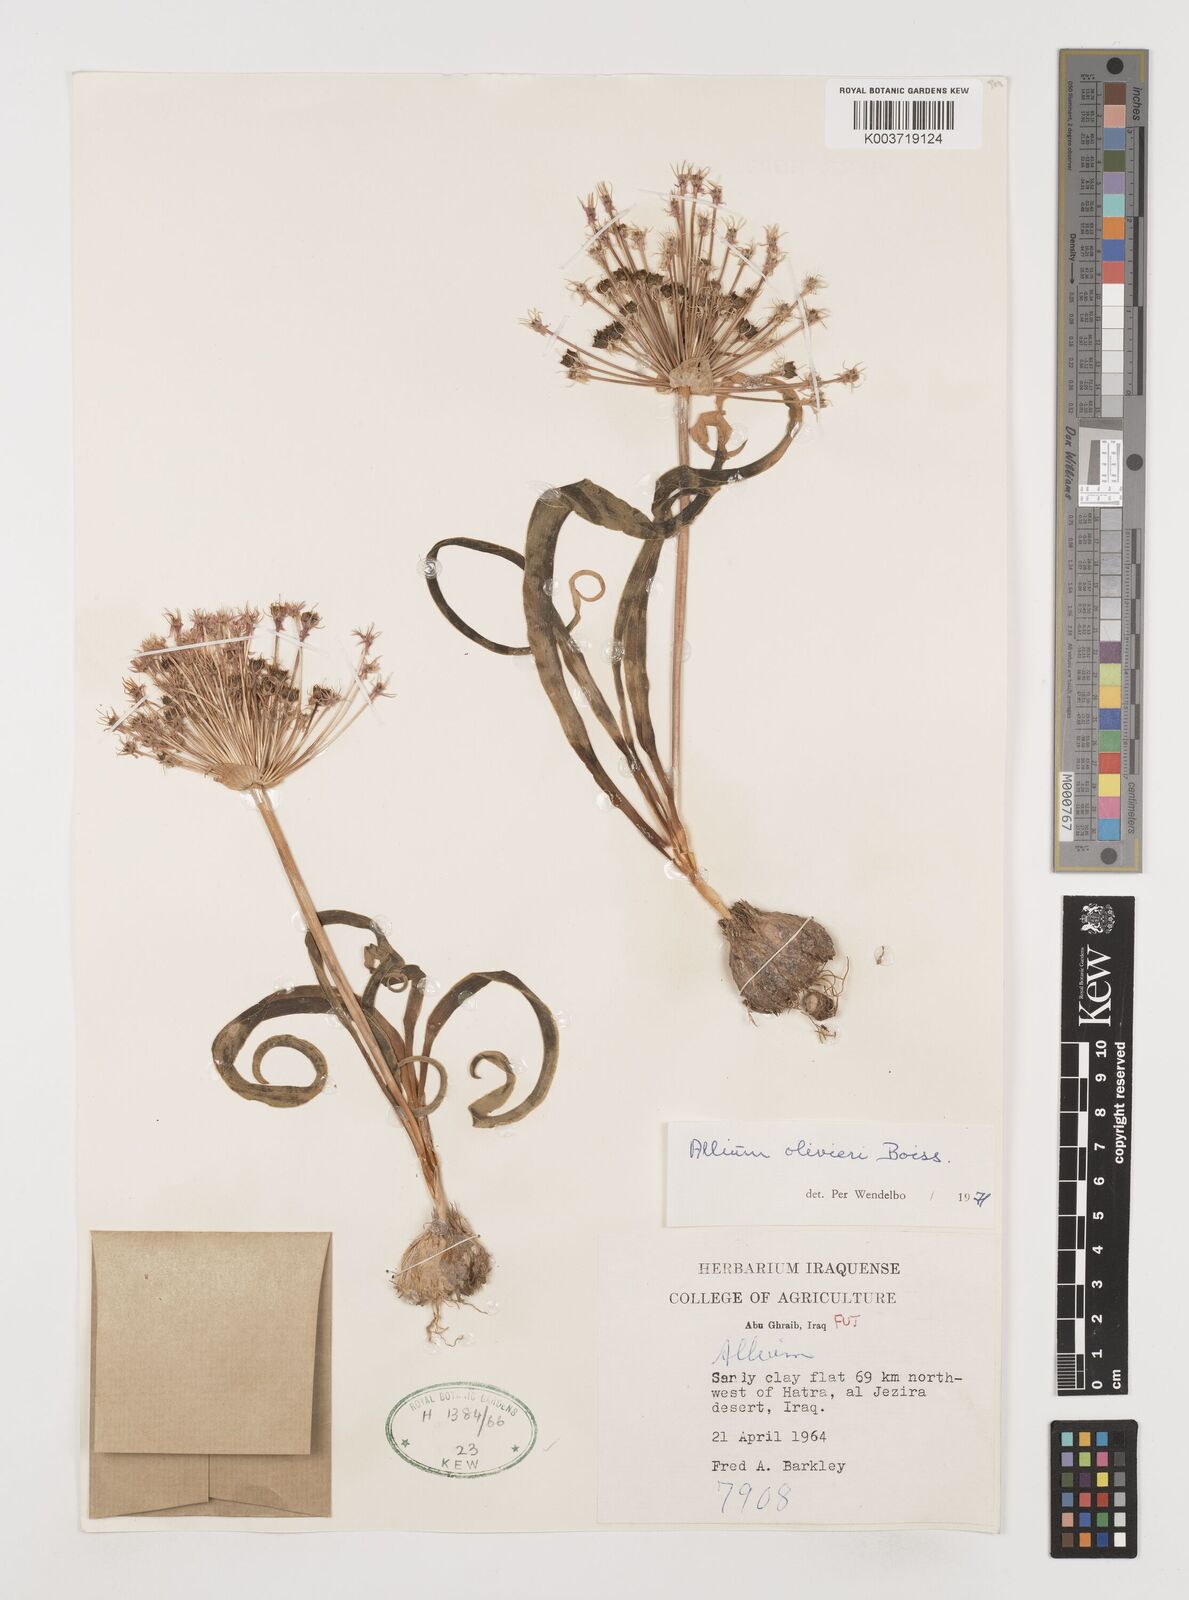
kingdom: Plantae
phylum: Tracheophyta
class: Liliopsida
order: Asparagales
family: Amaryllidaceae
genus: Allium
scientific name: Allium olivieri
